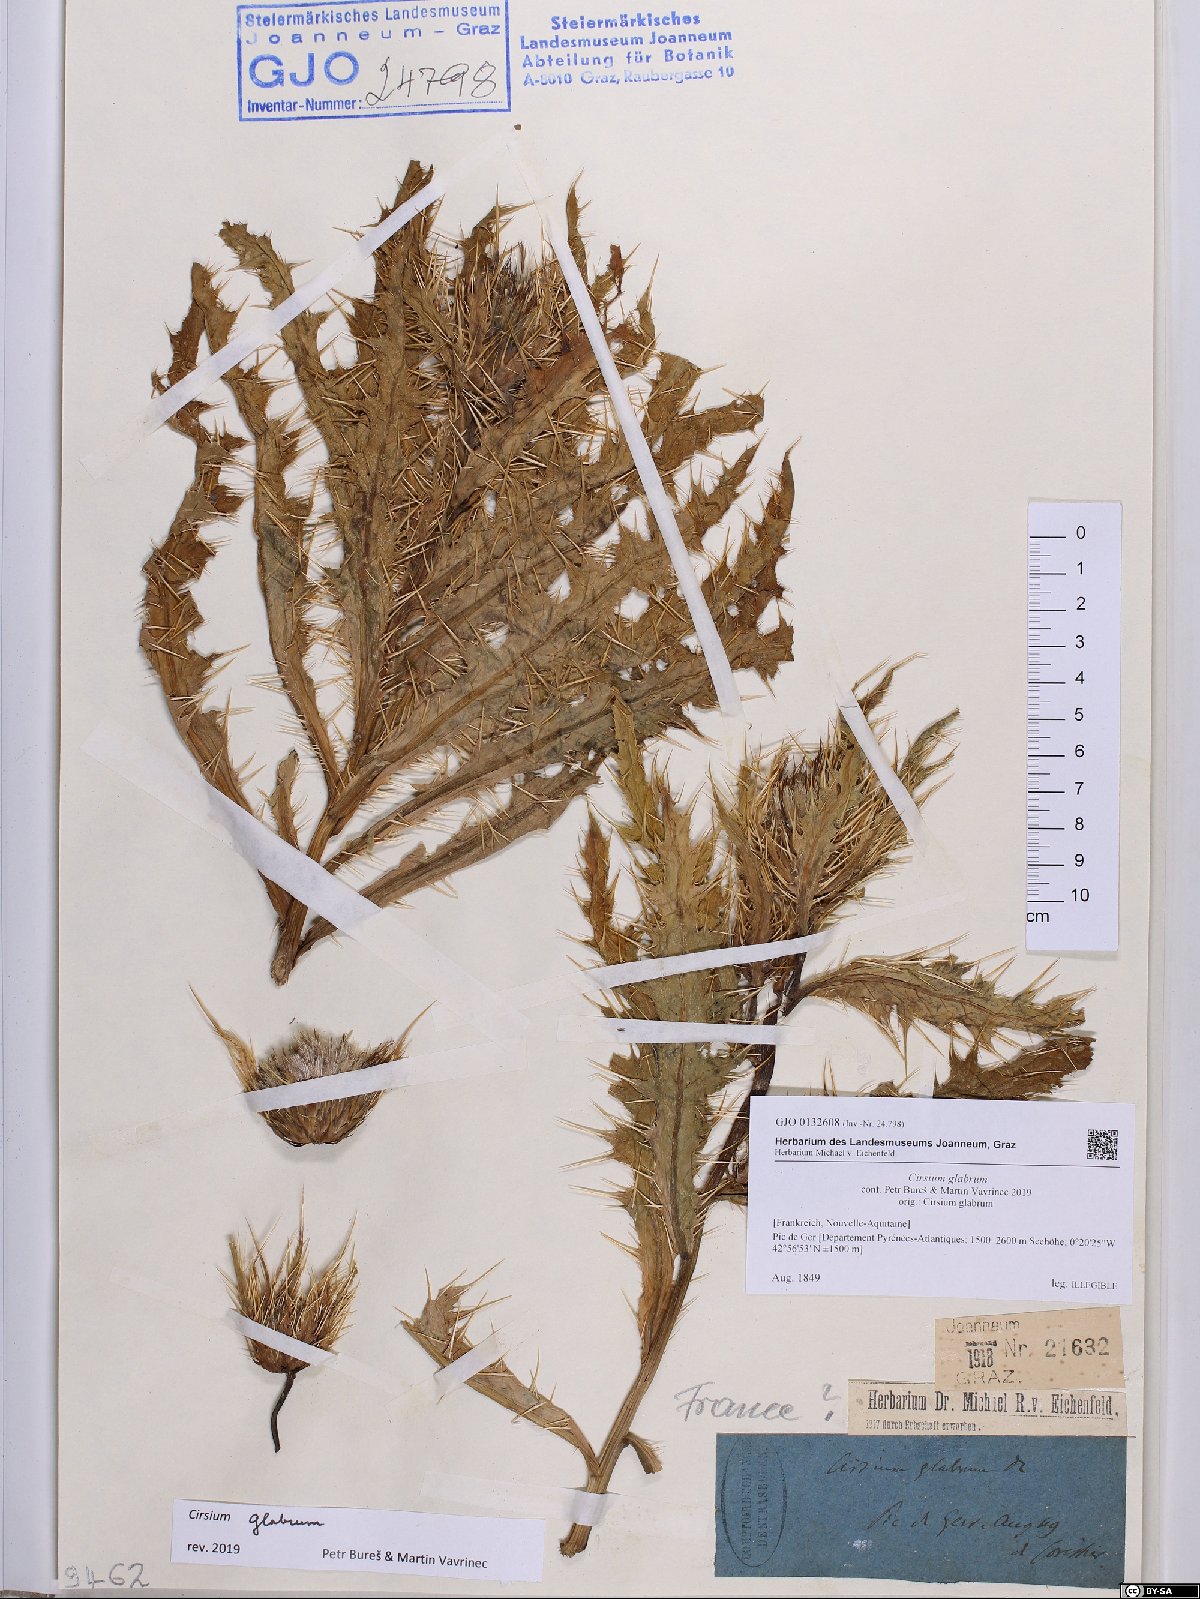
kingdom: Plantae
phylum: Tracheophyta
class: Magnoliopsida
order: Asterales
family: Asteraceae
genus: Cirsium
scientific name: Cirsium glabrum
